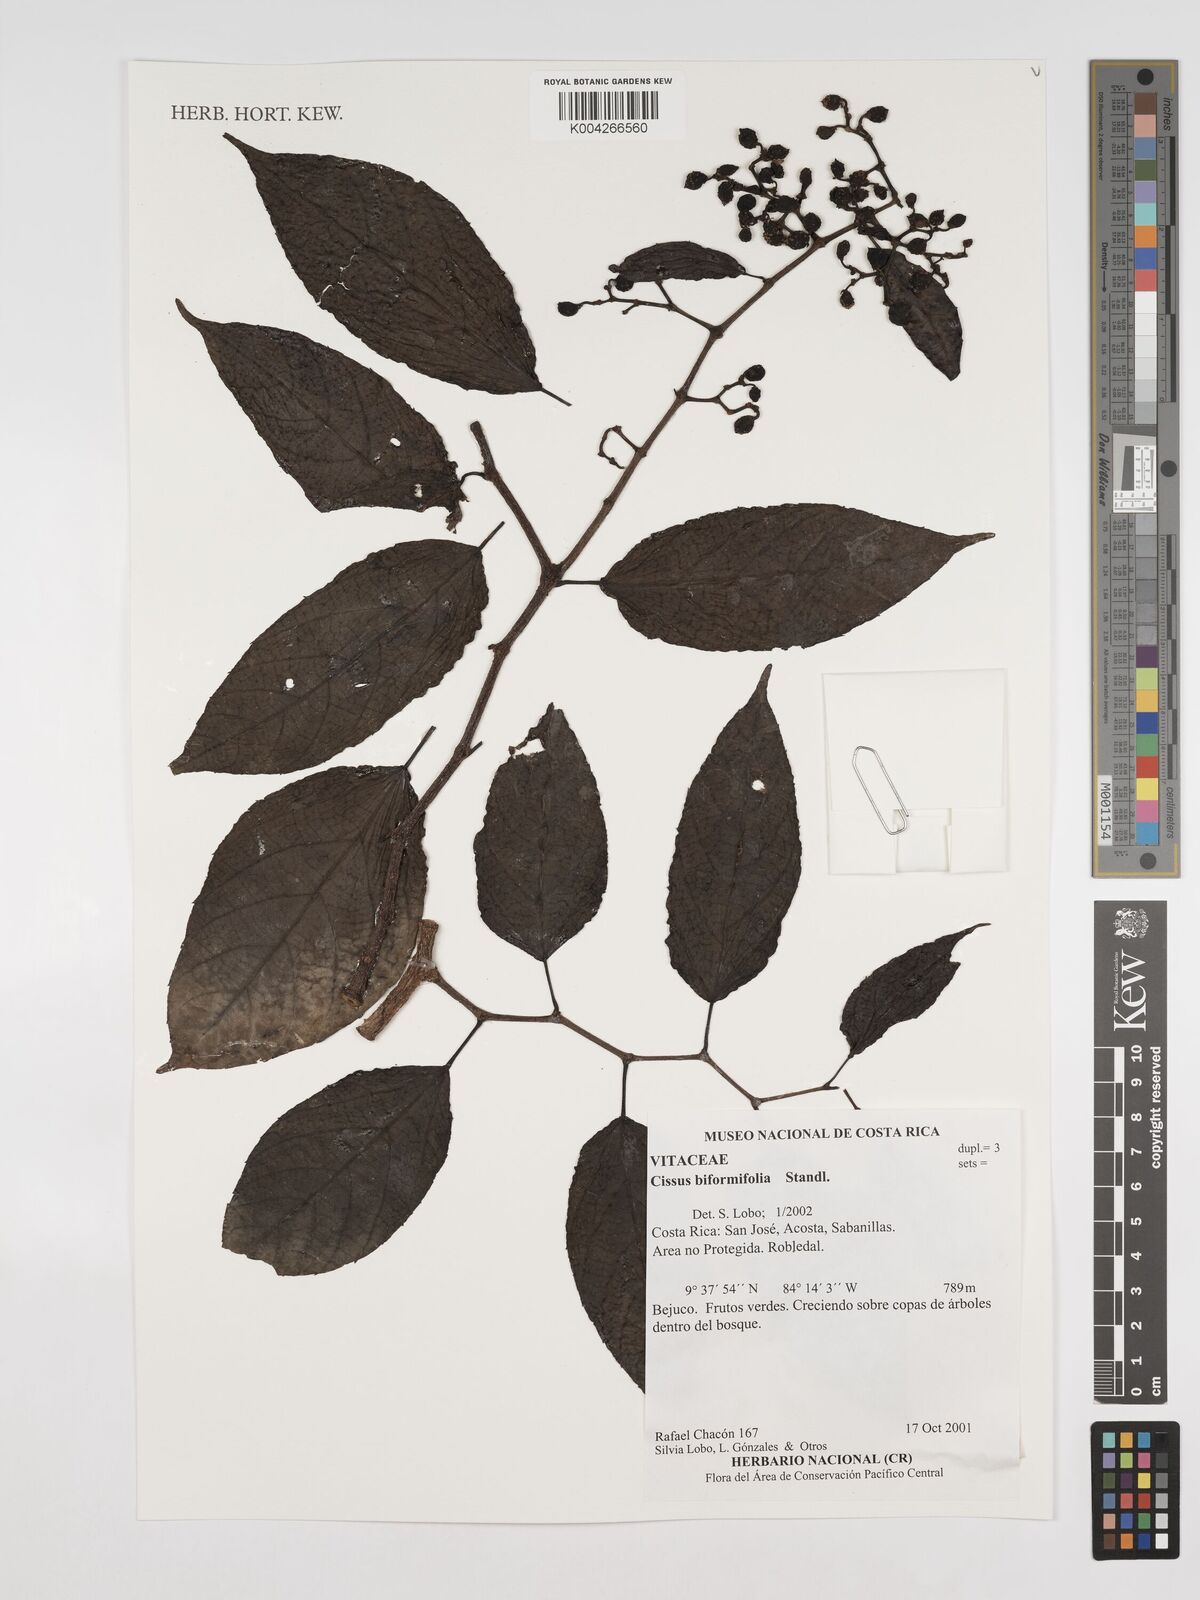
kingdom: Plantae
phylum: Tracheophyta
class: Magnoliopsida
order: Vitales
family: Vitaceae
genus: Cissus
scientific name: Cissus biformifolia
